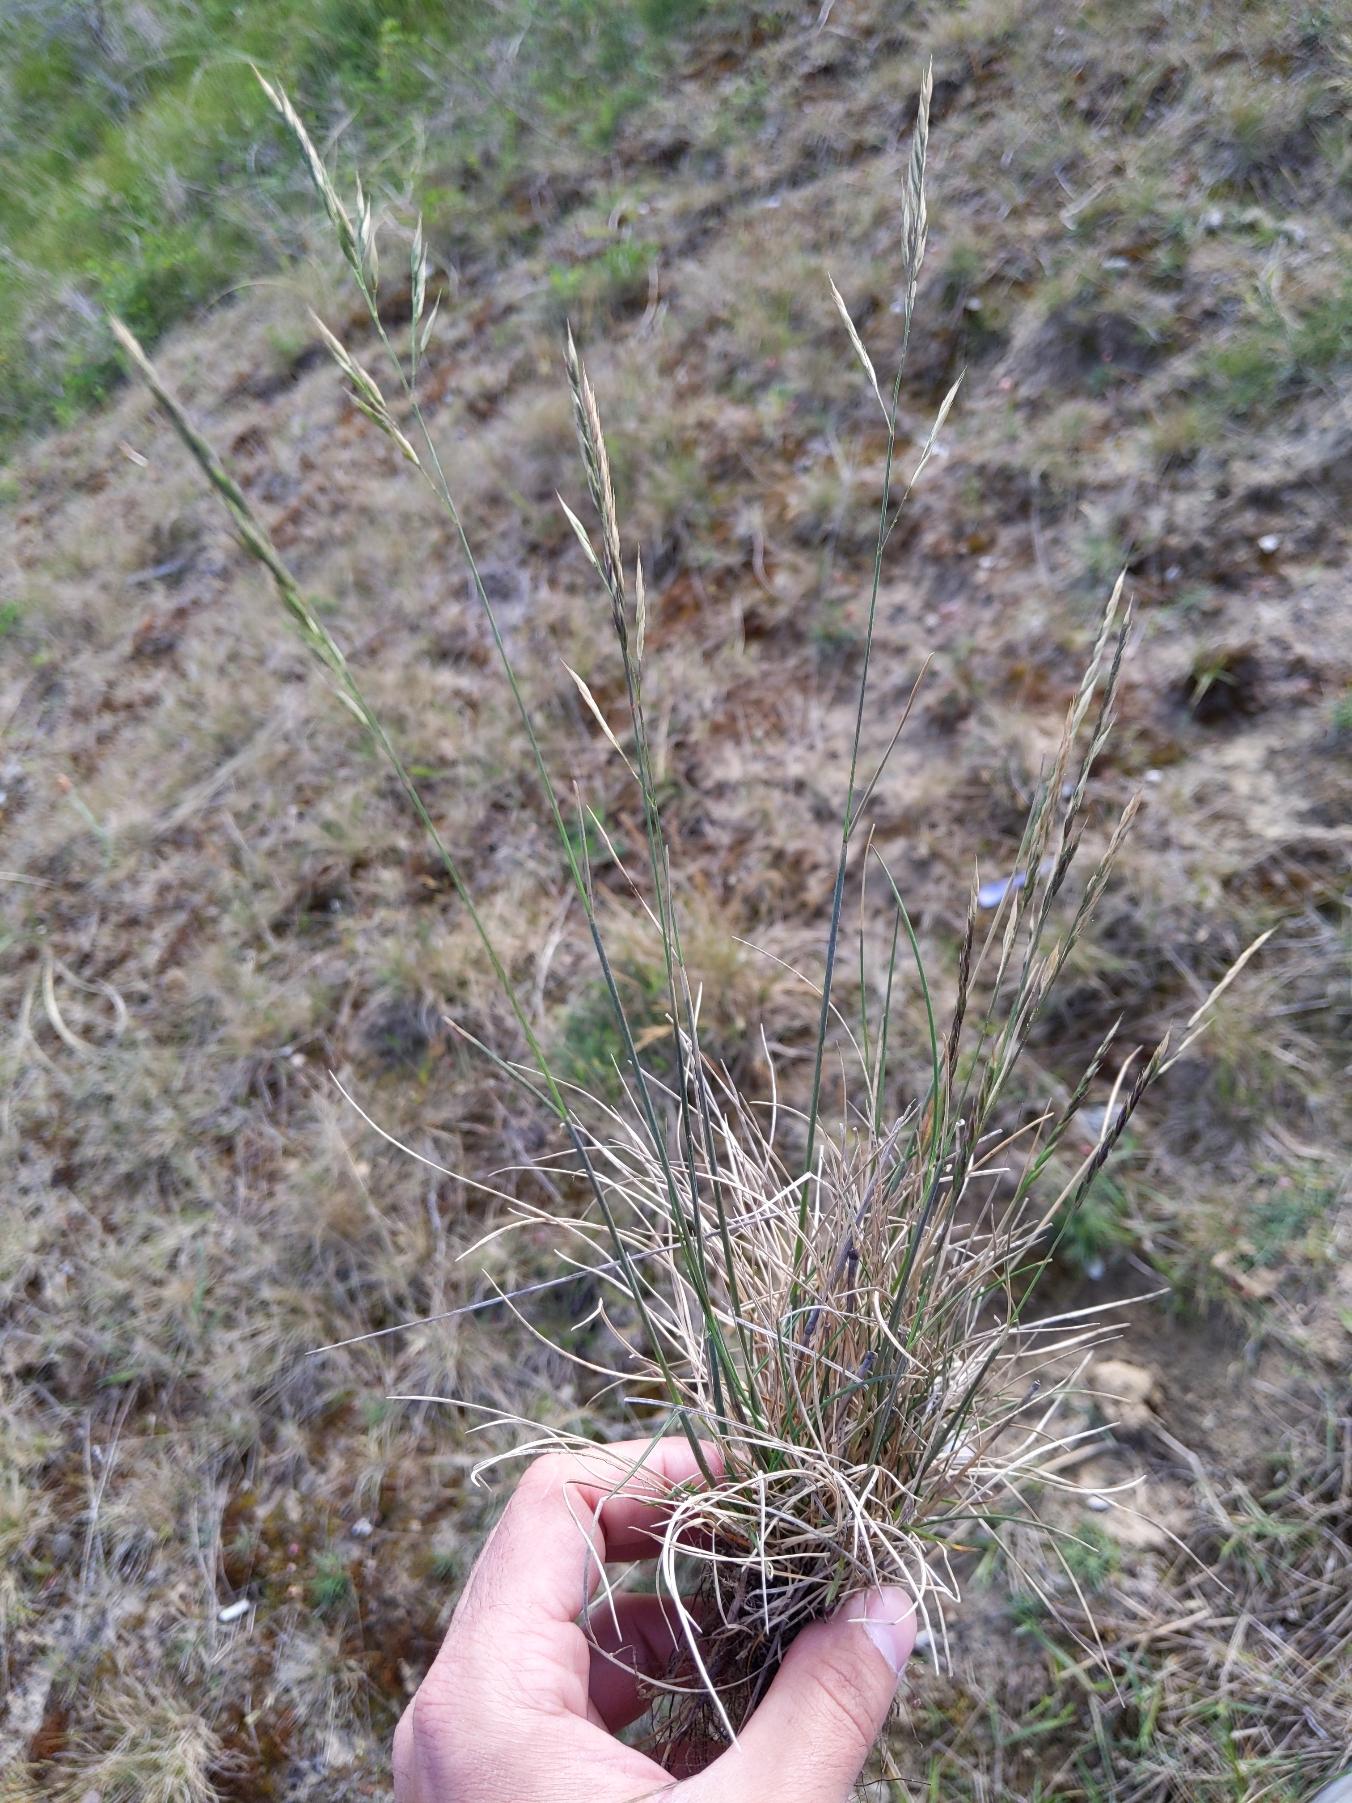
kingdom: Plantae
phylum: Tracheophyta
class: Liliopsida
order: Poales
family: Poaceae
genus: Festuca
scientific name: Festuca trachyphylla
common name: Bakke-svingel
